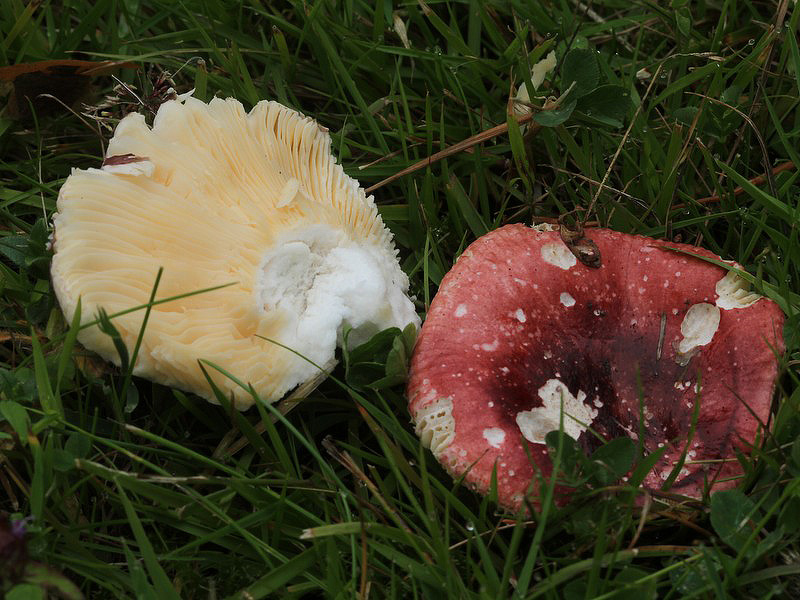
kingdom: Fungi
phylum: Basidiomycota
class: Agaricomycetes
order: Russulales
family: Russulaceae
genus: Russula
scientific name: Russula cessans
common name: fyrre-skørhat
